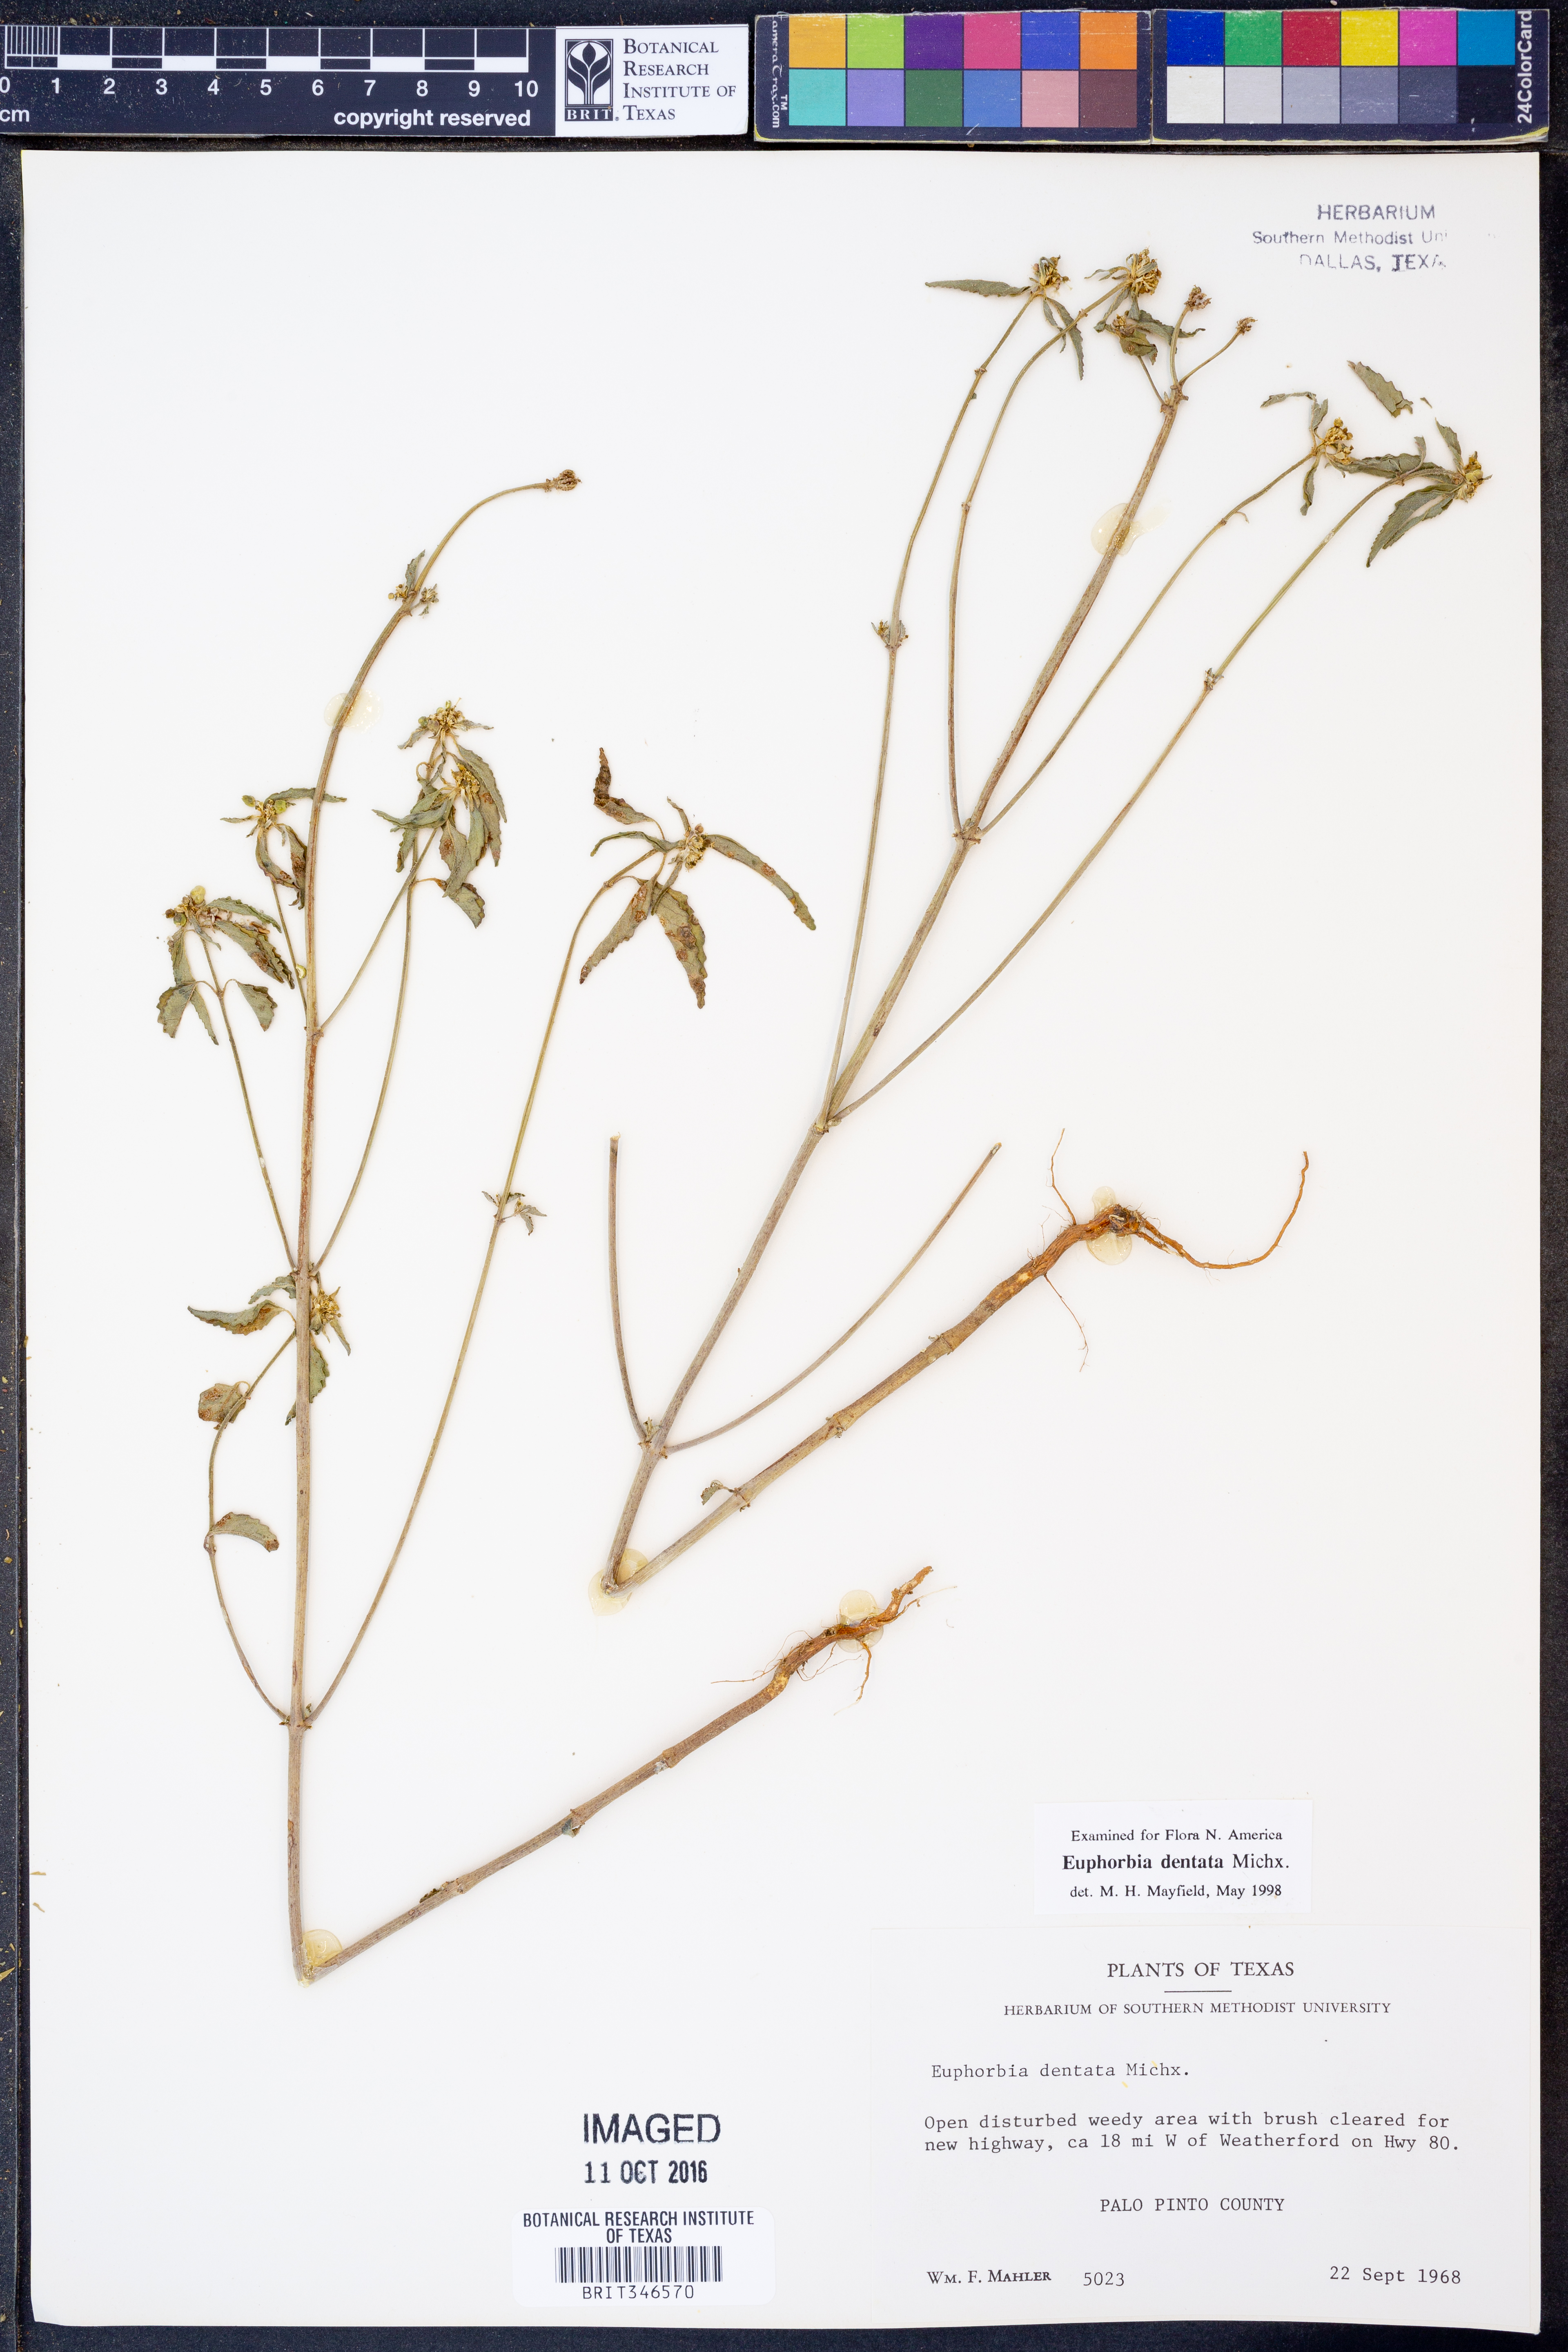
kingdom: Plantae
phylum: Tracheophyta
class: Magnoliopsida
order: Malpighiales
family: Euphorbiaceae
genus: Euphorbia
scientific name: Euphorbia dentata
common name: Dentate spurge
